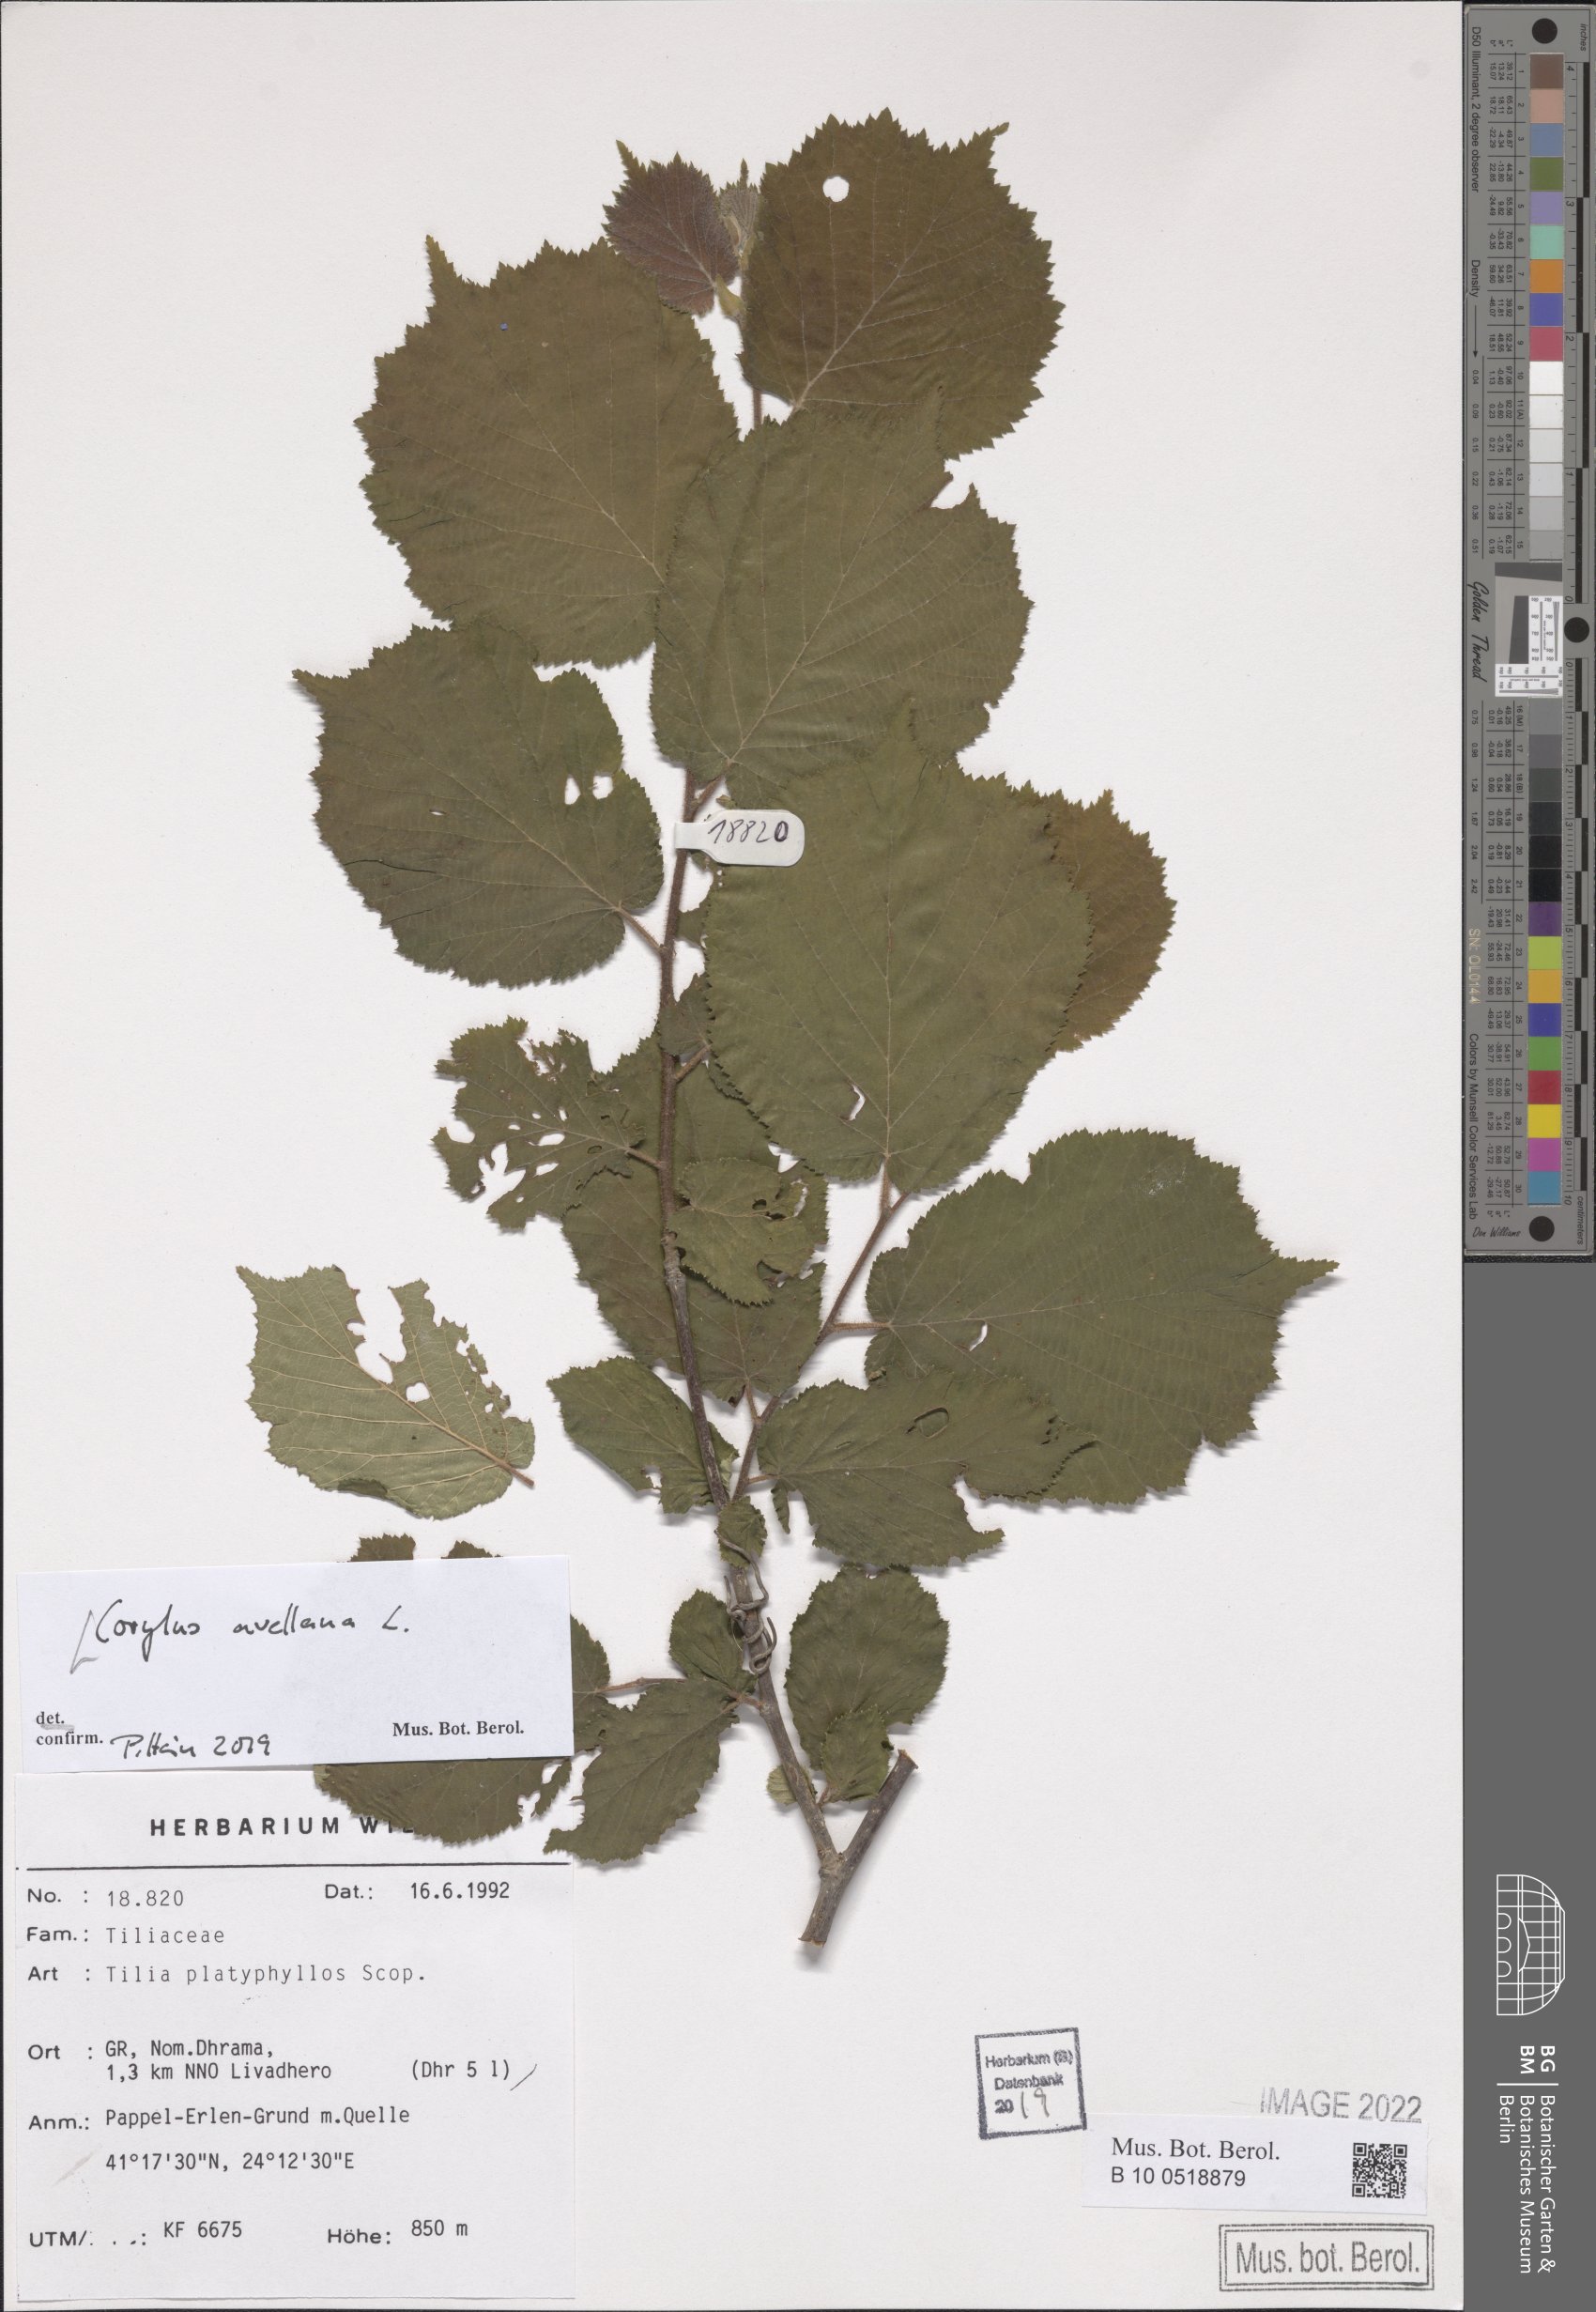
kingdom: Plantae
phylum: Tracheophyta
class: Magnoliopsida
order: Fagales
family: Betulaceae
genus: Corylus
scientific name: Corylus avellana
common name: European hazel
